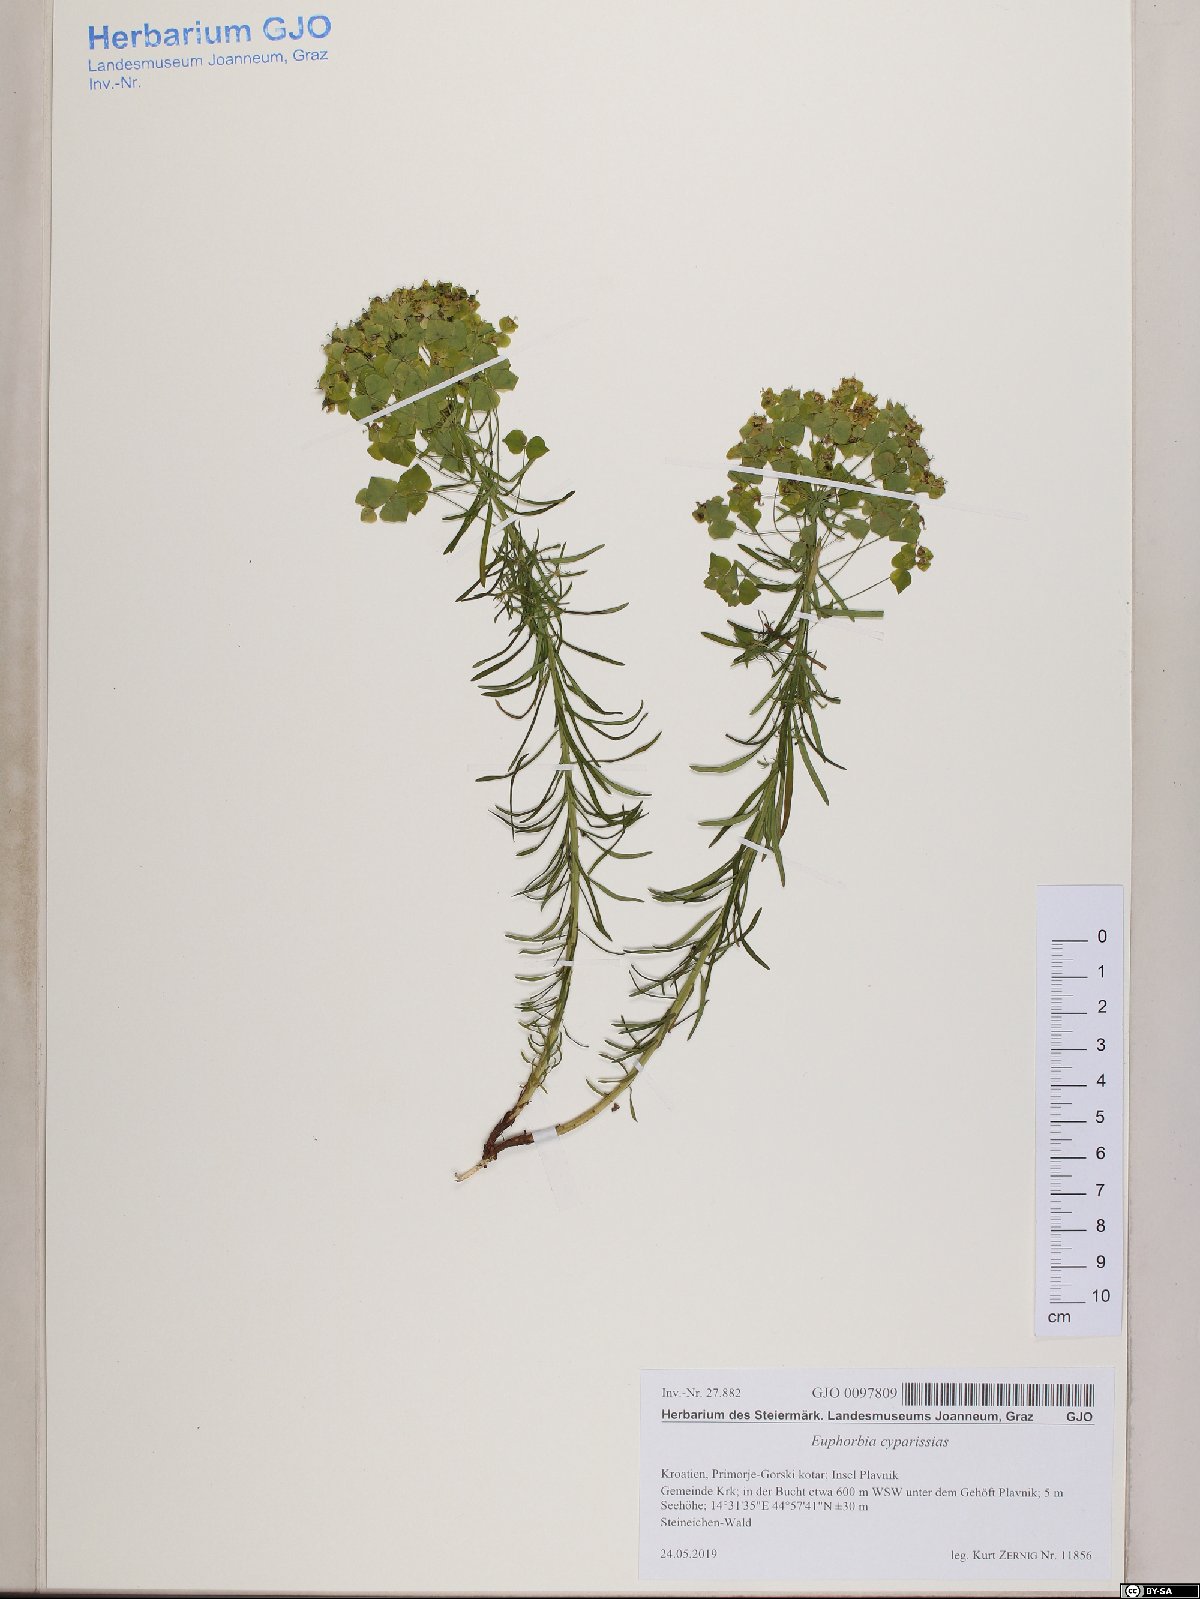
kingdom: Plantae
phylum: Tracheophyta
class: Magnoliopsida
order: Malpighiales
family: Euphorbiaceae
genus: Euphorbia
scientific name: Euphorbia cyparissias
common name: Cypress spurge
